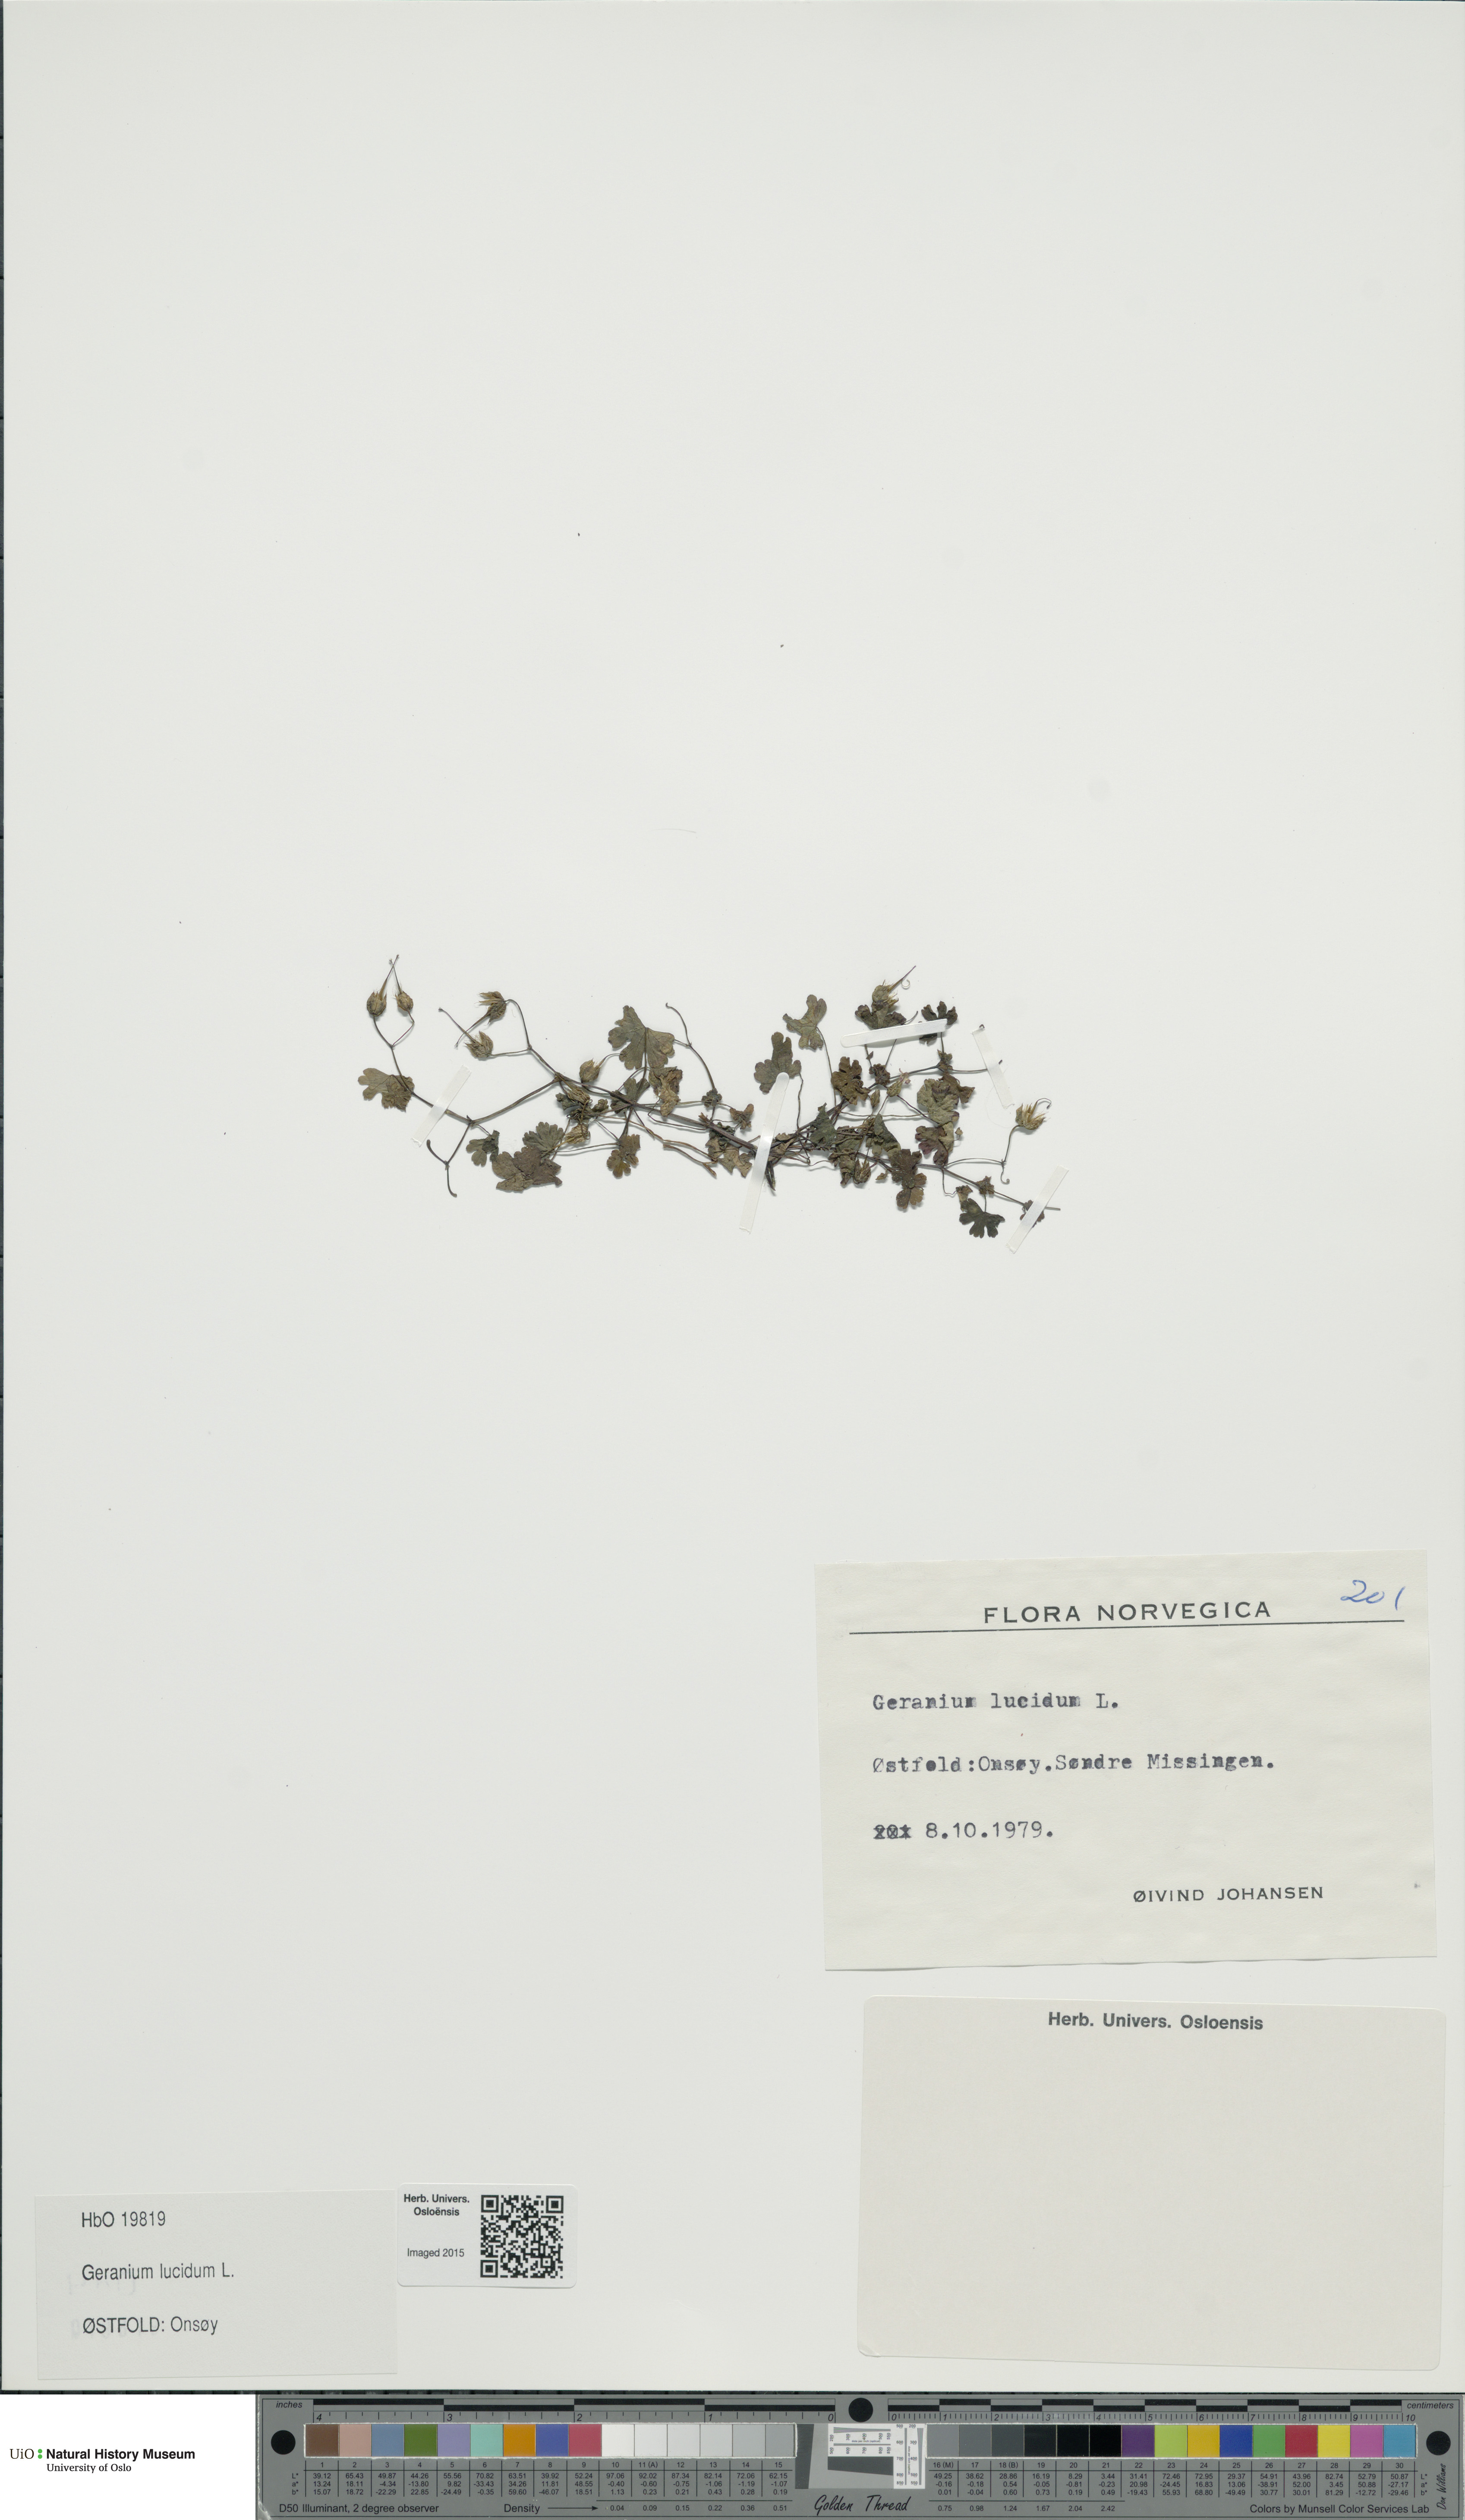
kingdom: Plantae
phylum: Tracheophyta
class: Magnoliopsida
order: Geraniales
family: Geraniaceae
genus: Geranium
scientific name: Geranium lucidum
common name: Shining crane's-bill
